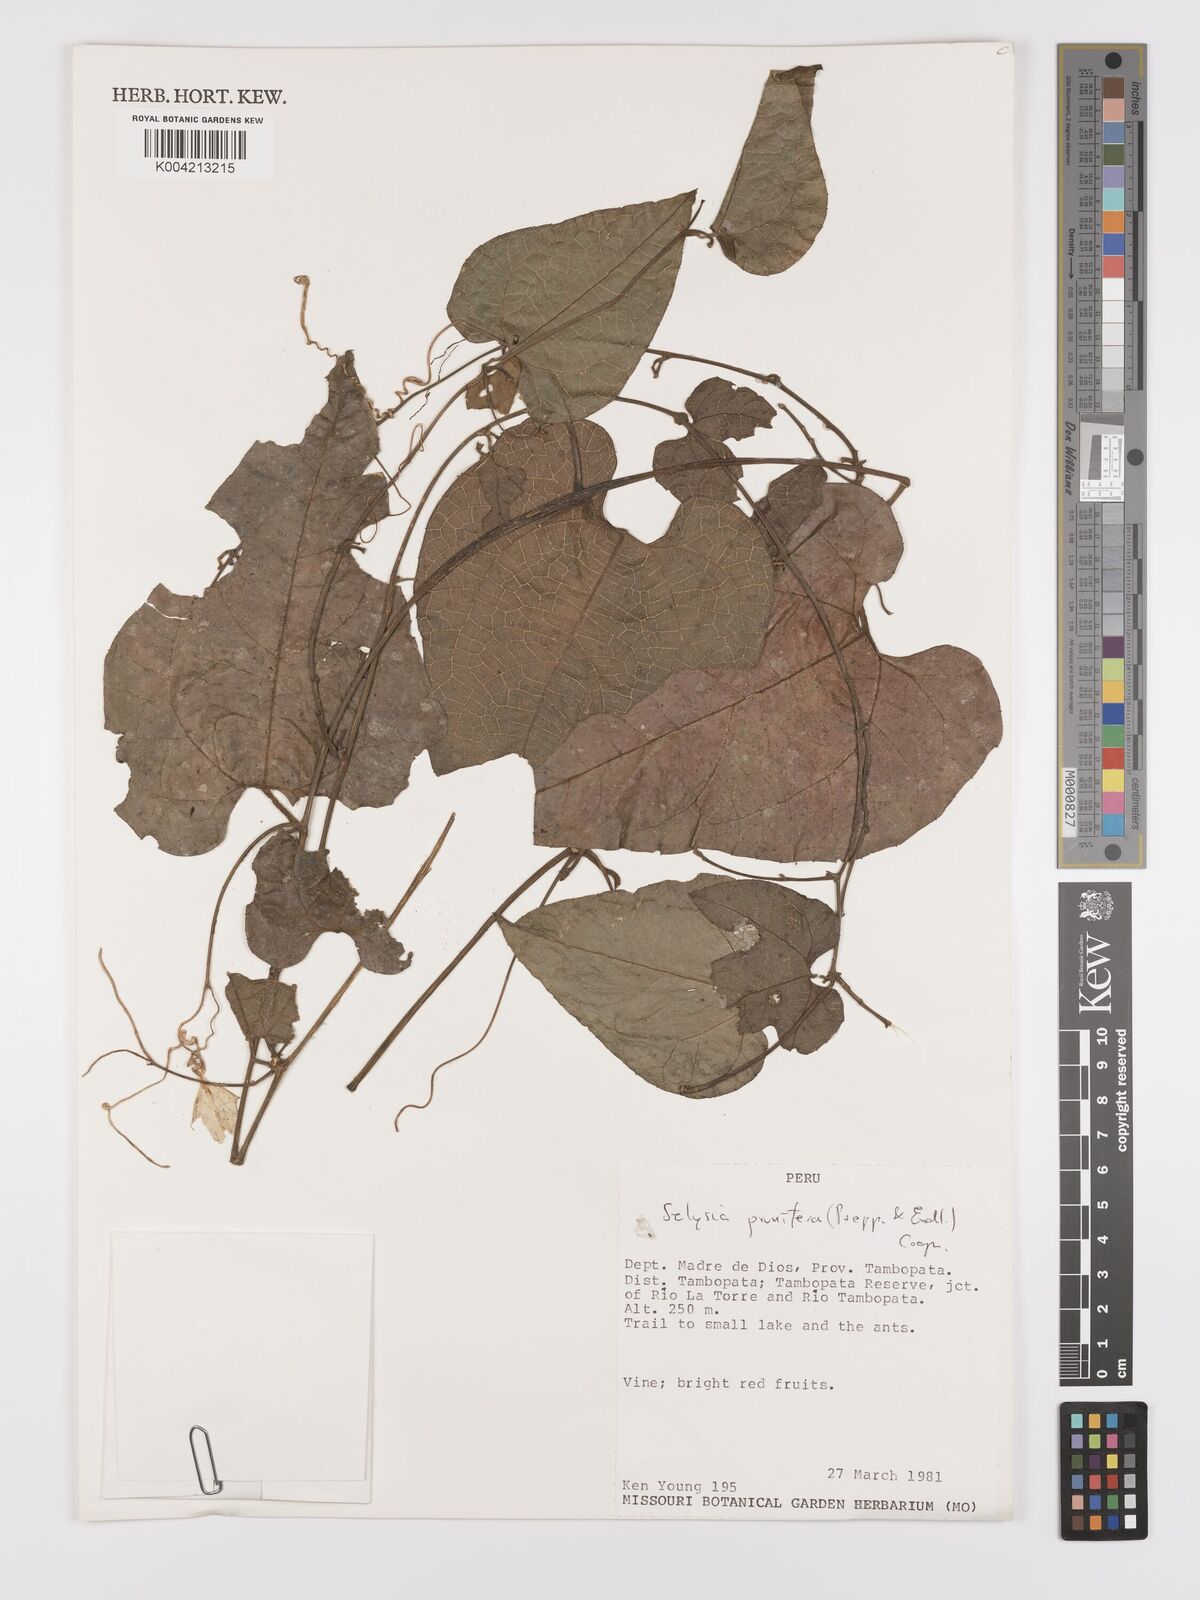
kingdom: Plantae
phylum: Tracheophyta
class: Magnoliopsida
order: Cucurbitales
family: Cucurbitaceae
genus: Cayaponia
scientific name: Cayaponia prunifera
